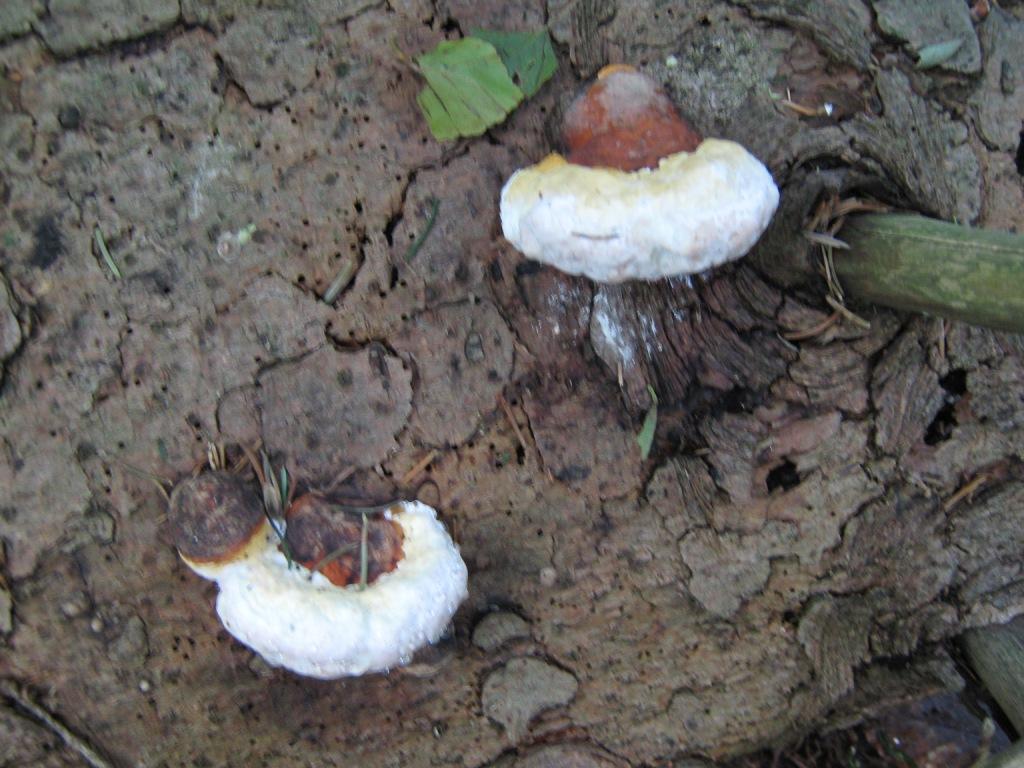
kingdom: Fungi
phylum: Basidiomycota
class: Agaricomycetes
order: Polyporales
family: Fomitopsidaceae
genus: Fomitopsis
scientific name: Fomitopsis pinicola
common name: randbæltet hovporesvamp
